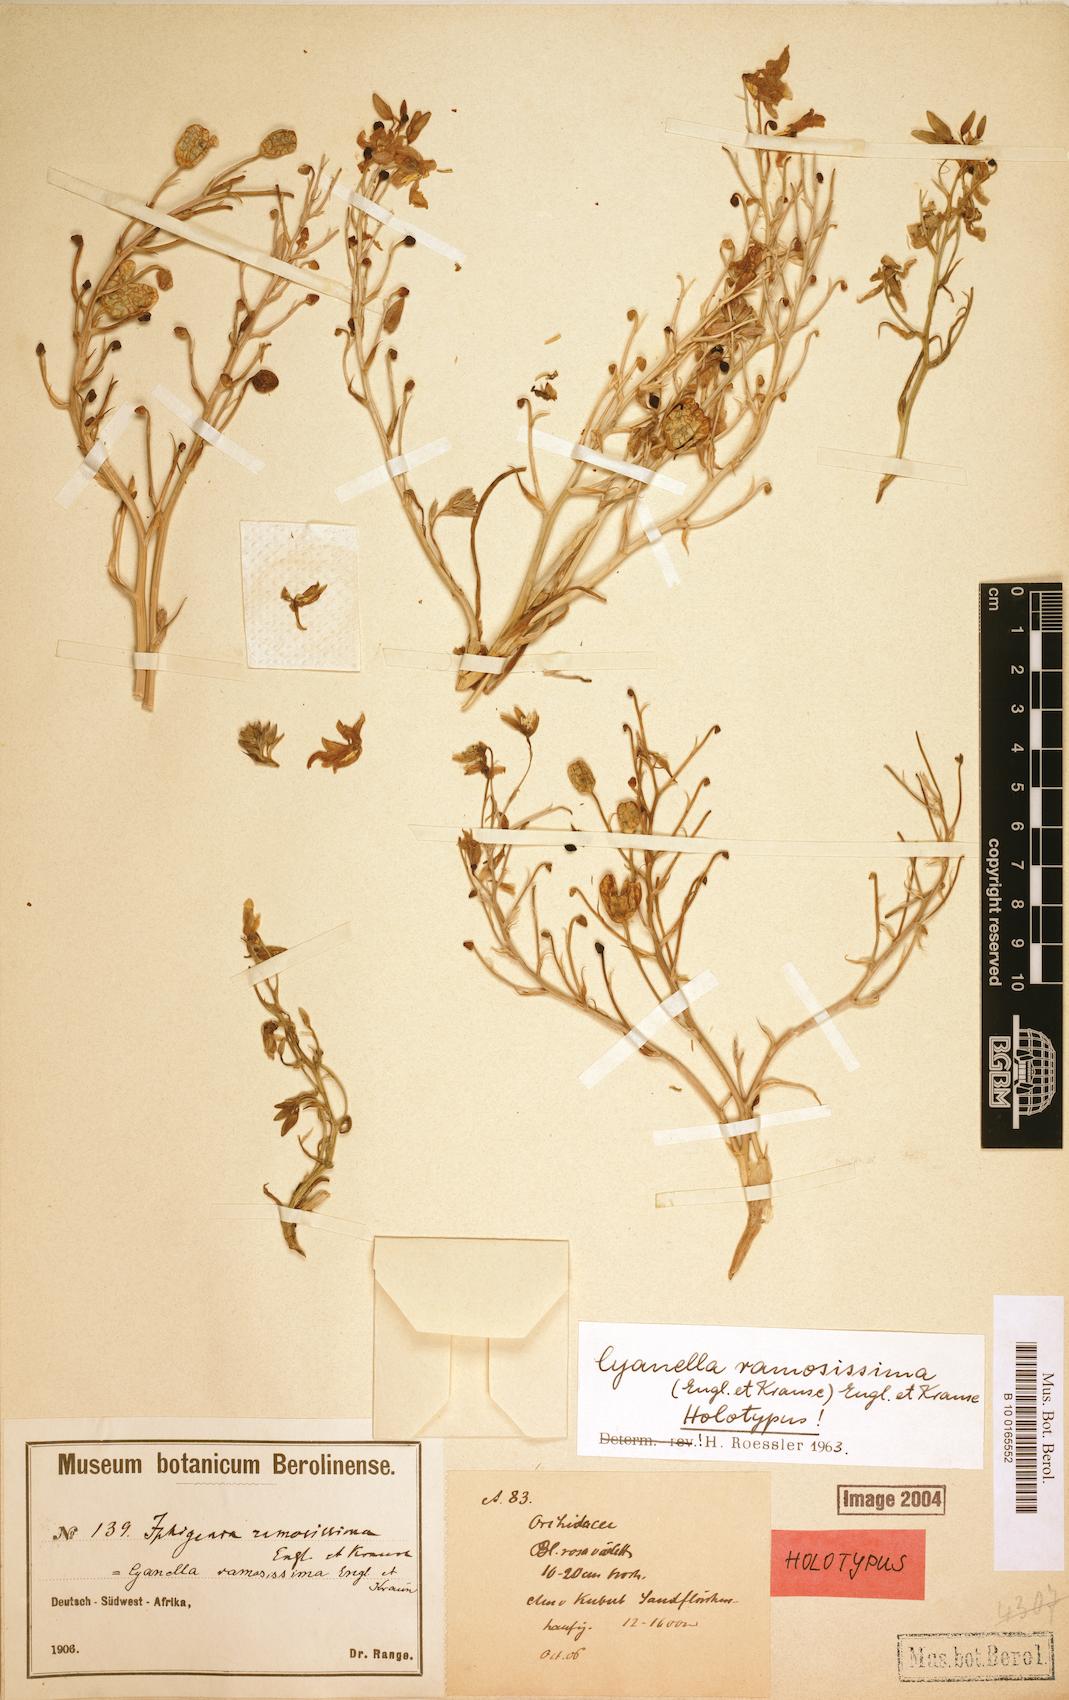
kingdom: Plantae
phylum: Tracheophyta
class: Liliopsida
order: Asparagales
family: Tecophilaeaceae
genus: Cyanella
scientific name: Cyanella ramosissima
